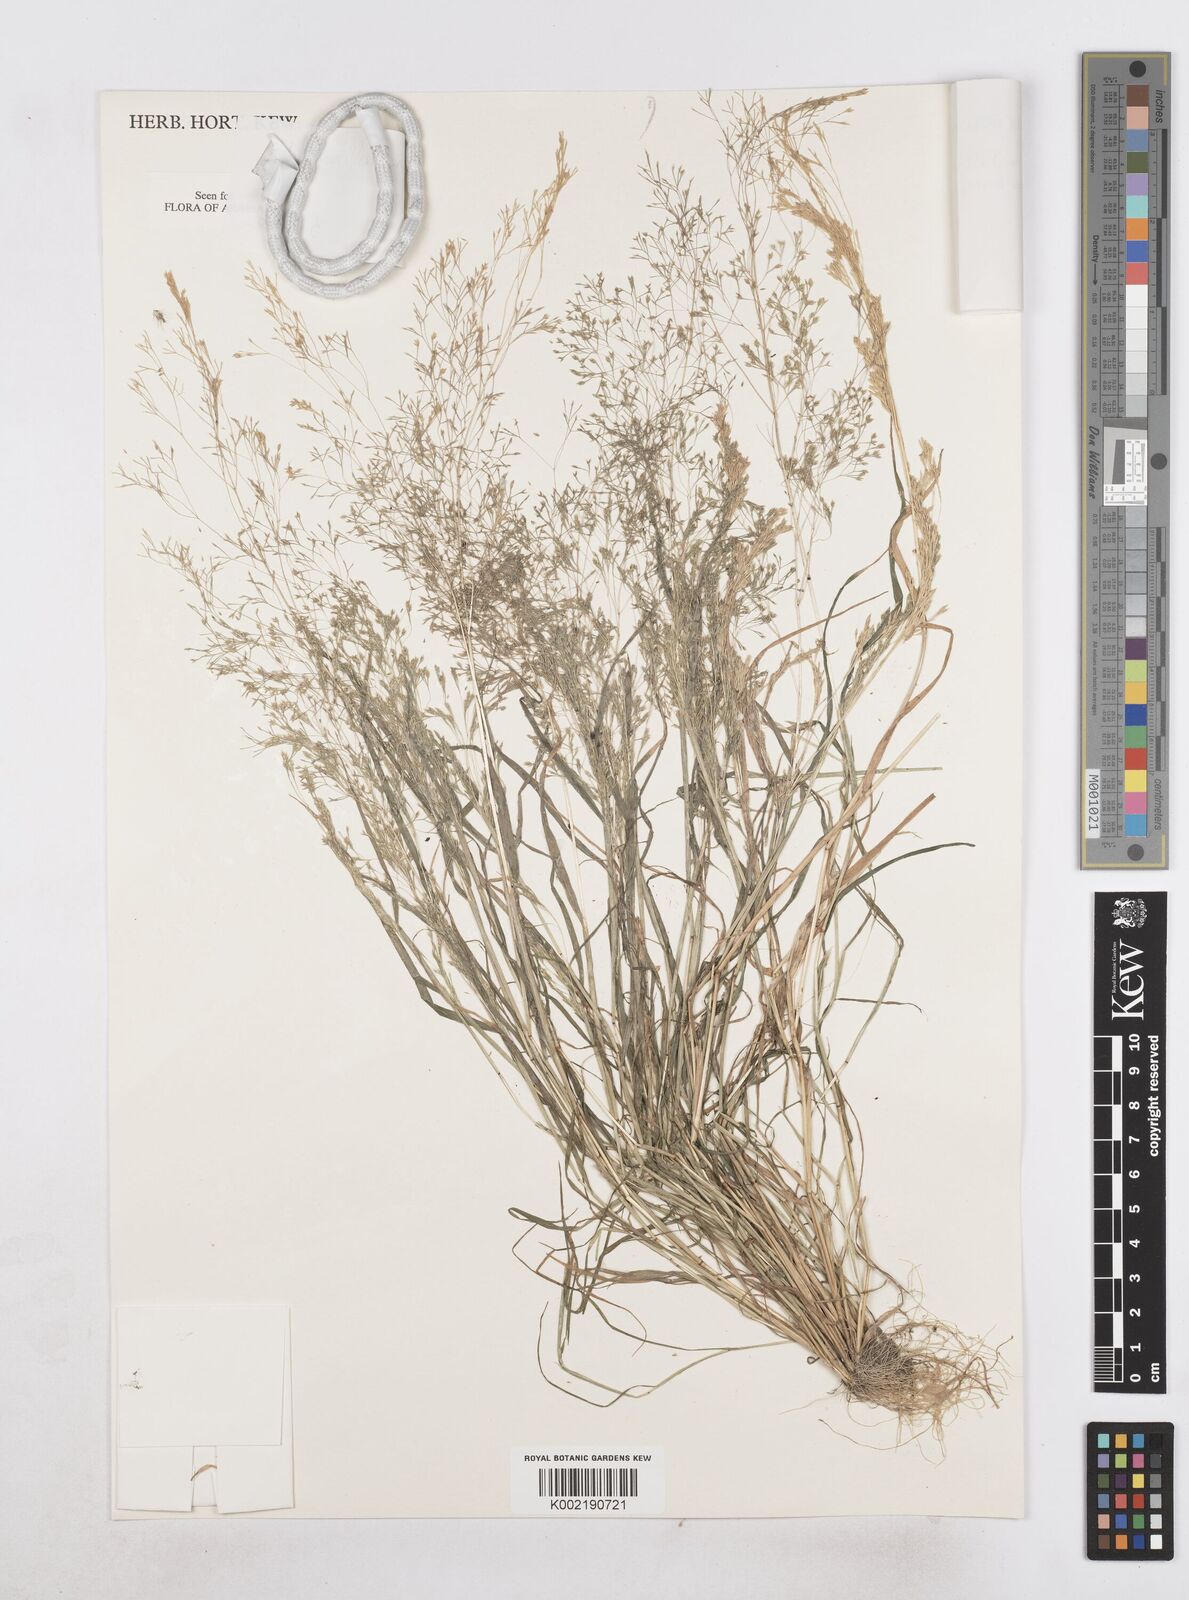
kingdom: Plantae
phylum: Tracheophyta
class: Liliopsida
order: Poales
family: Poaceae
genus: Sphenopus
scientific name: Sphenopus divaricatus
